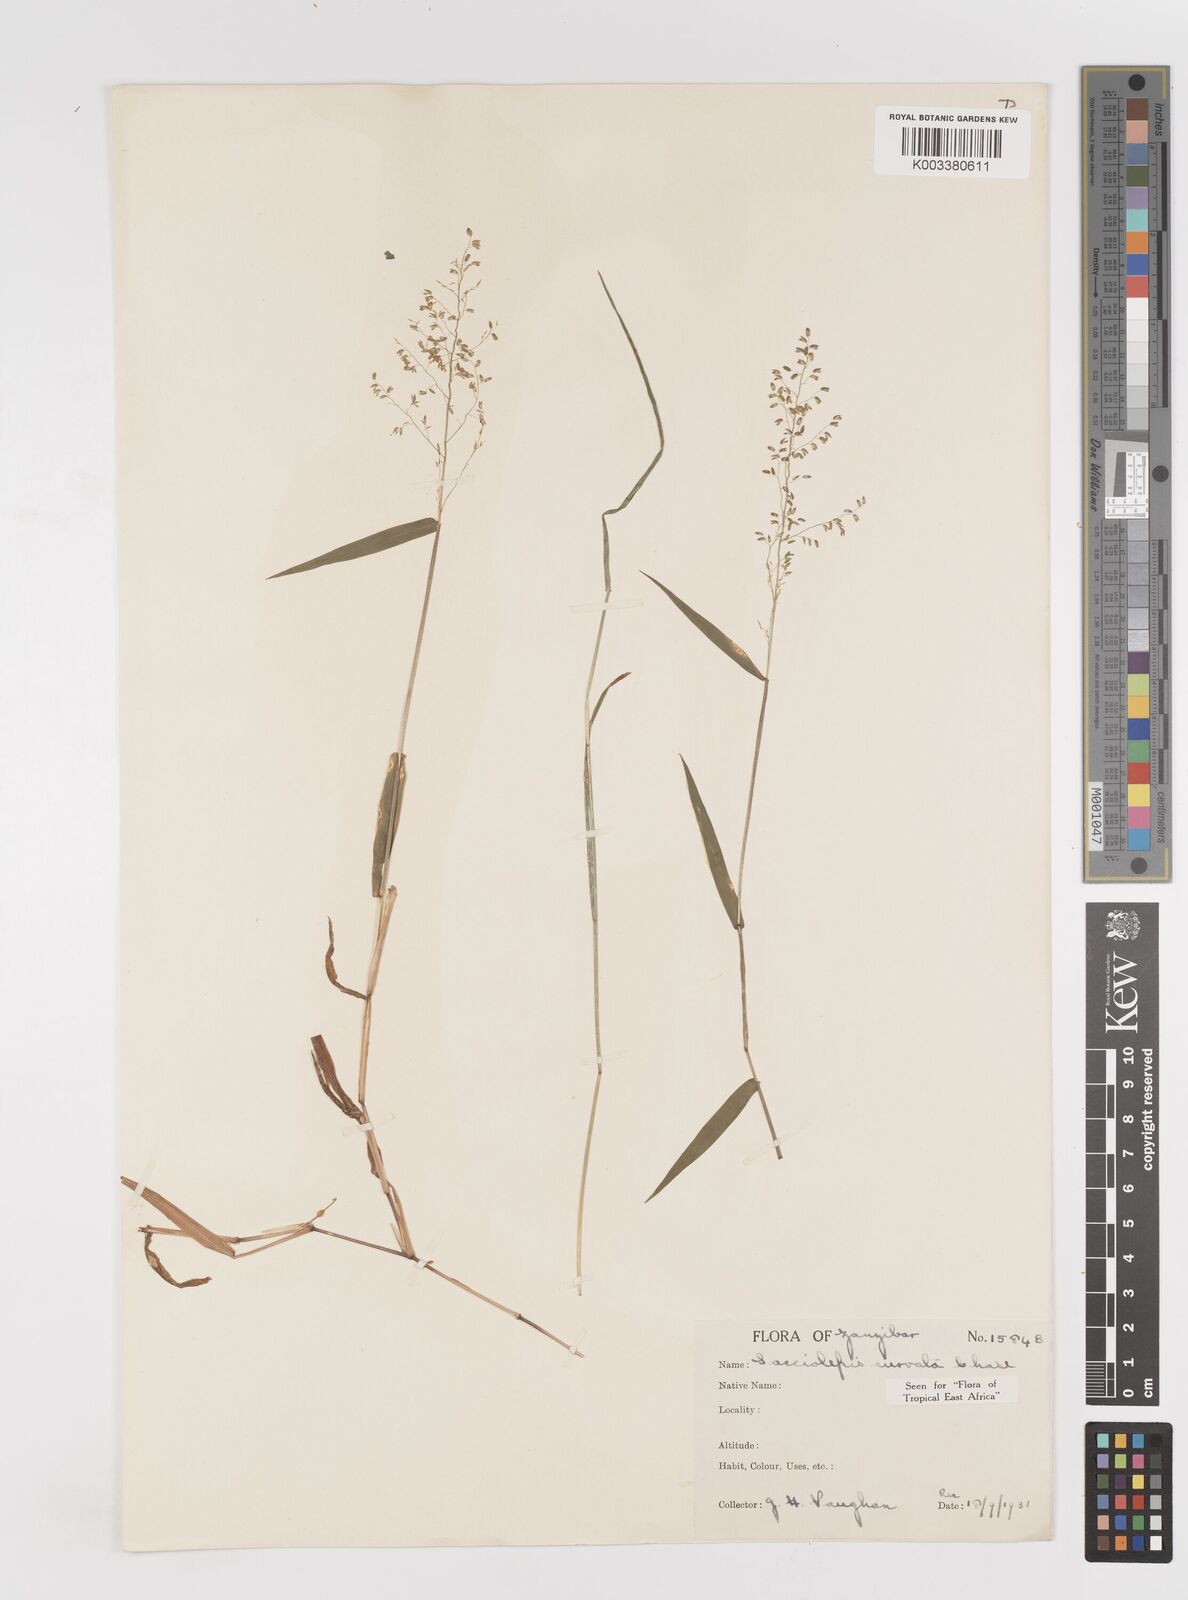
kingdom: Plantae
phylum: Tracheophyta
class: Liliopsida
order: Poales
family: Poaceae
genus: Sacciolepis
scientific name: Sacciolepis curvata
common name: Forest hood grass
